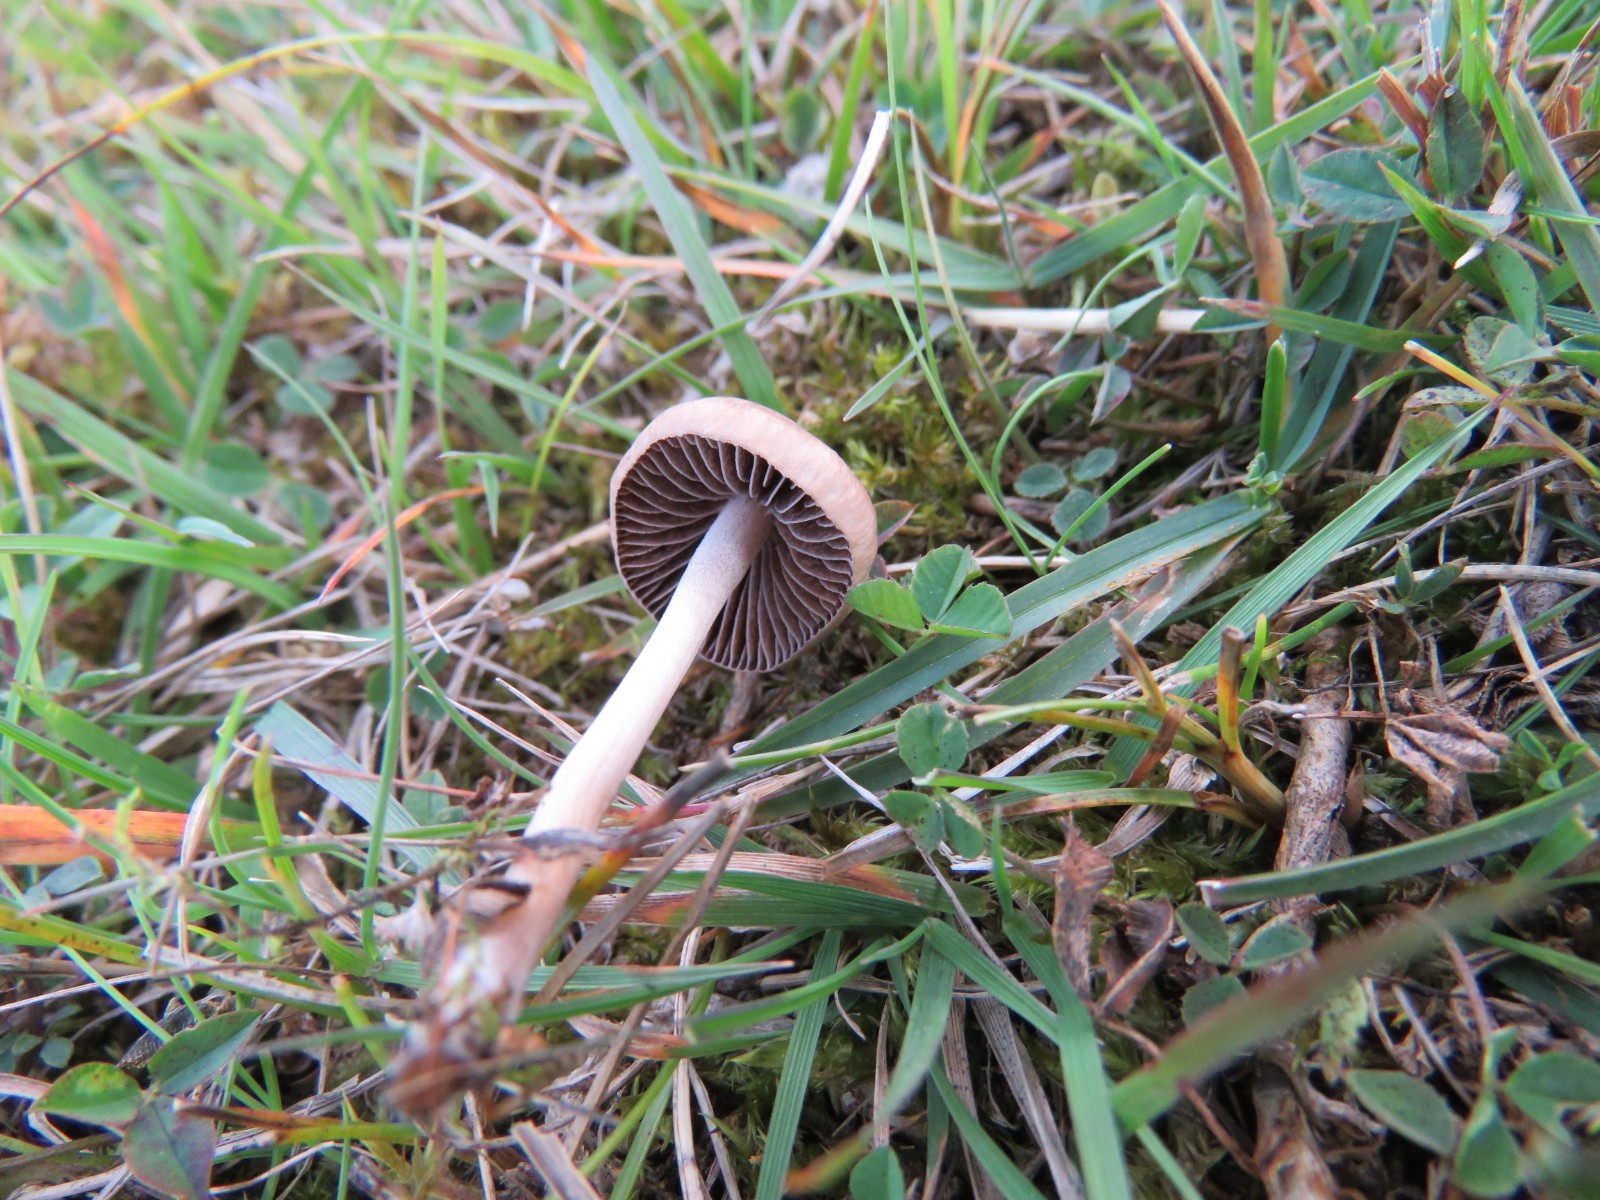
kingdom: Fungi
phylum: Basidiomycota
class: Agaricomycetes
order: Agaricales
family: Bolbitiaceae
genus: Panaeolina
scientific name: Panaeolina foenisecii
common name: høslætsvamp
